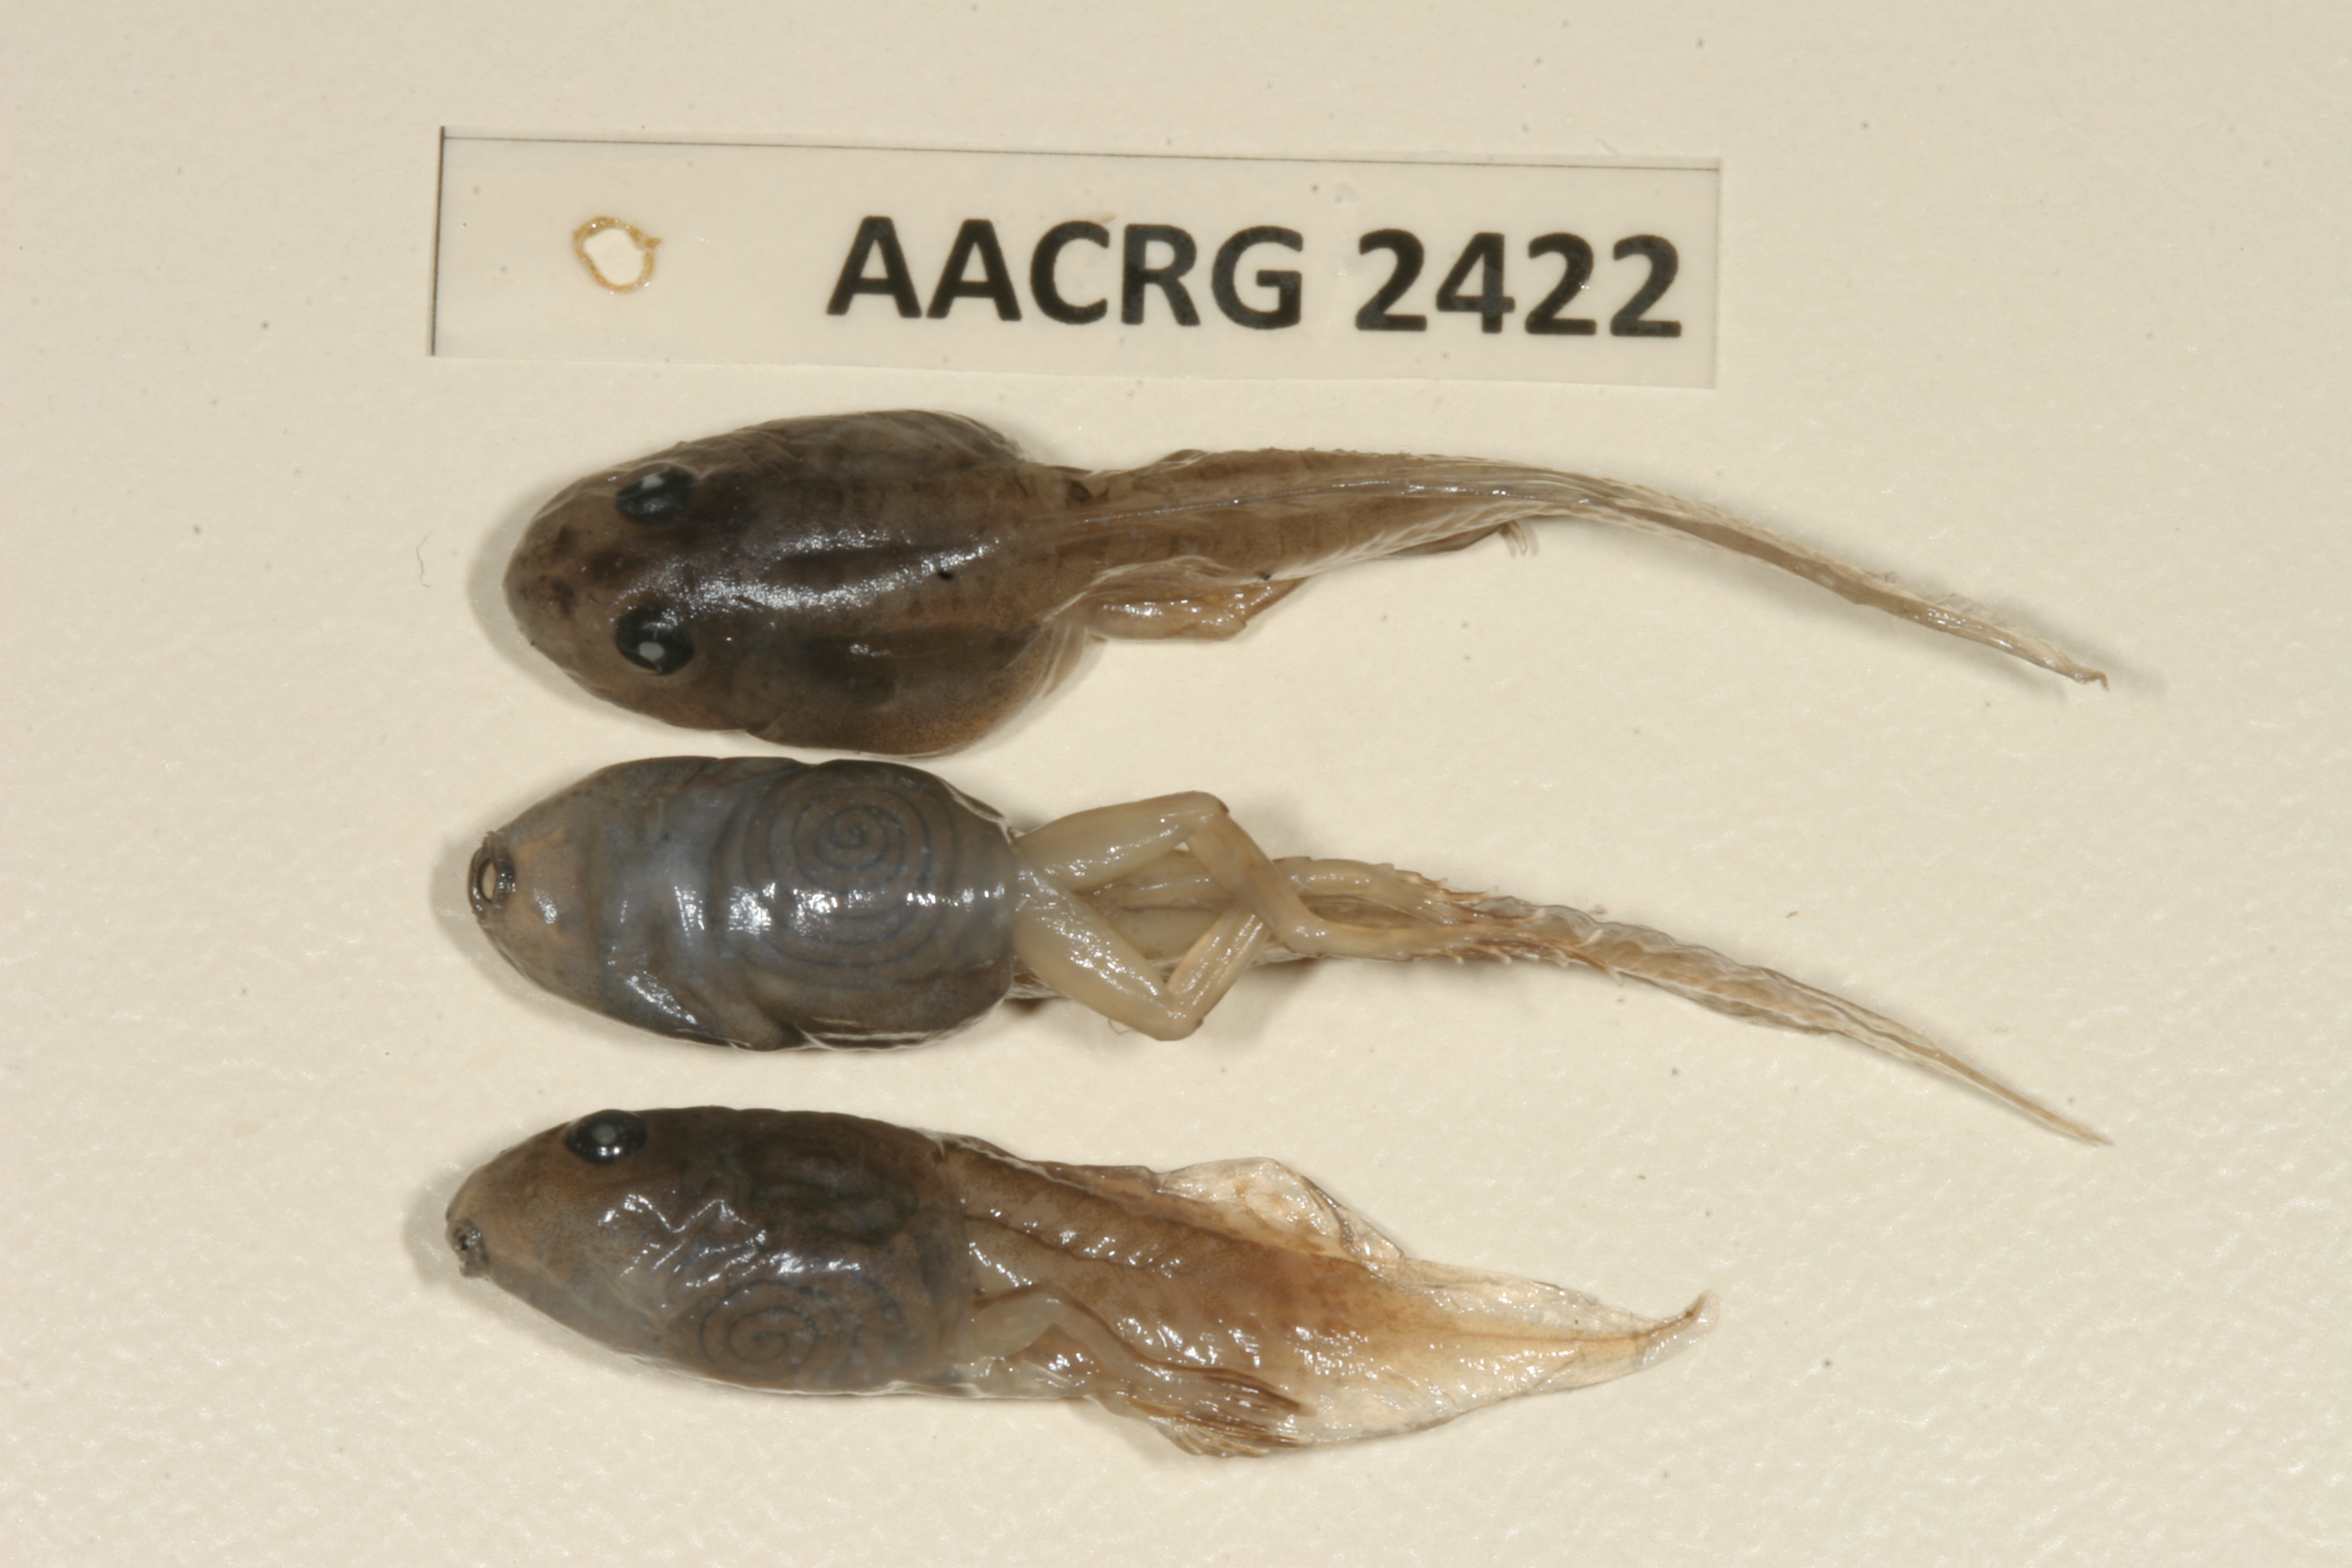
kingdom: Animalia
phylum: Chordata
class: Amphibia
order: Anura
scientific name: Anura
